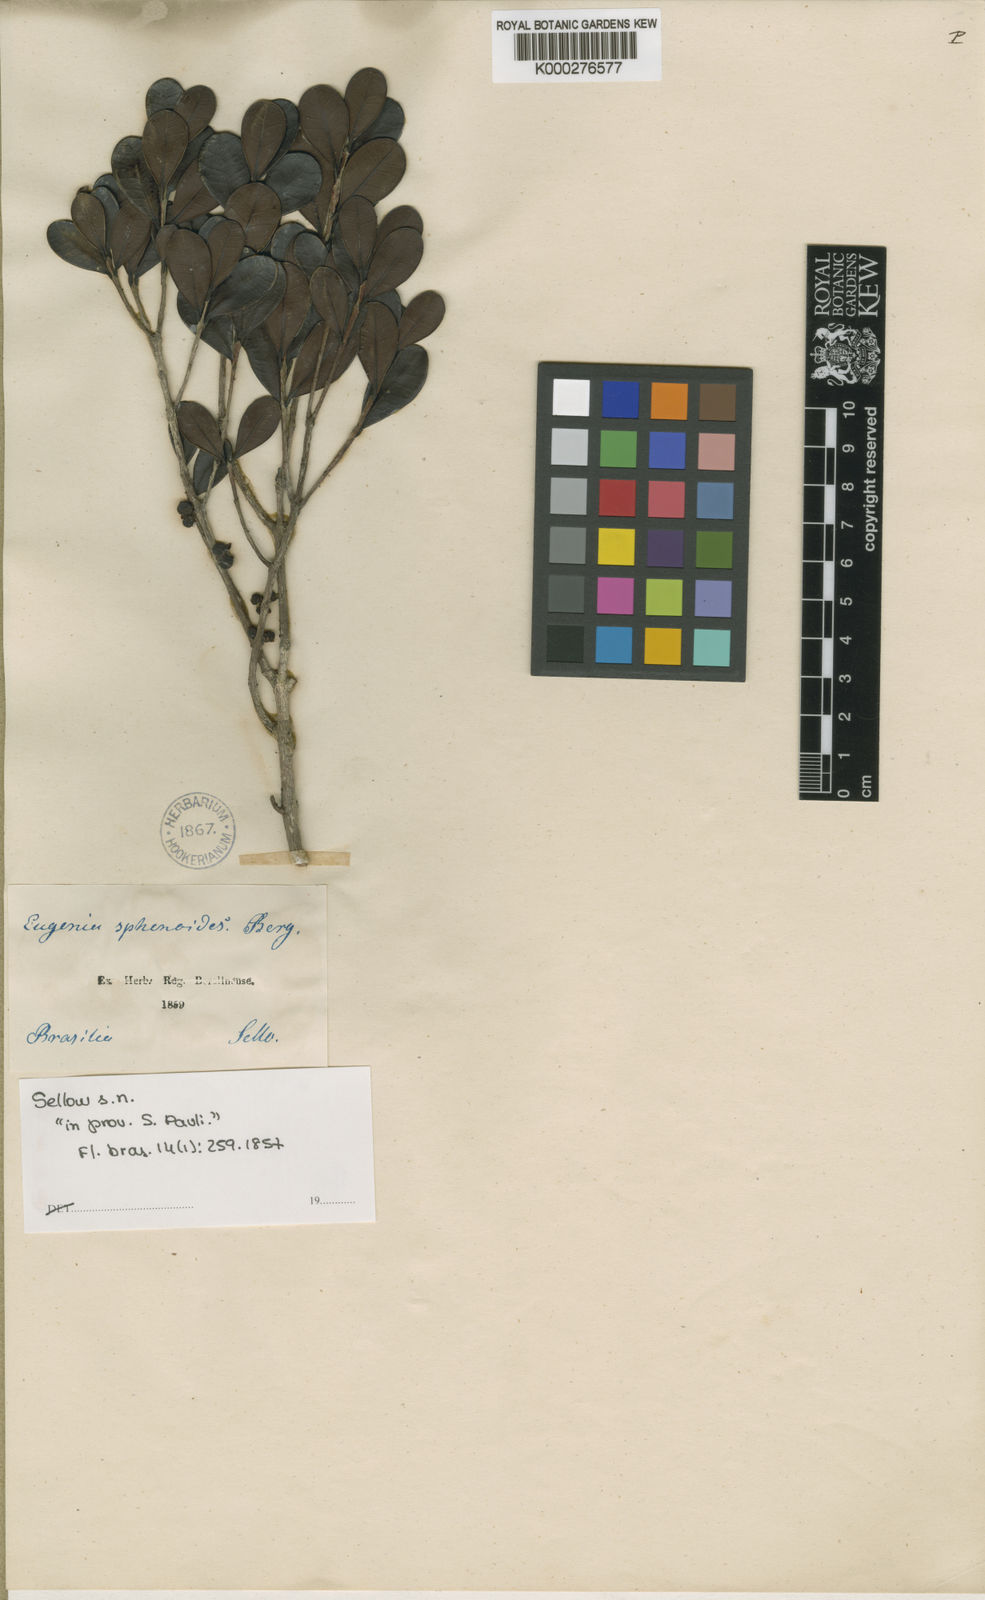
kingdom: Plantae
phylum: Tracheophyta
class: Magnoliopsida
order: Myrtales
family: Myrtaceae
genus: Eugenia
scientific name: Eugenia sphenoides
